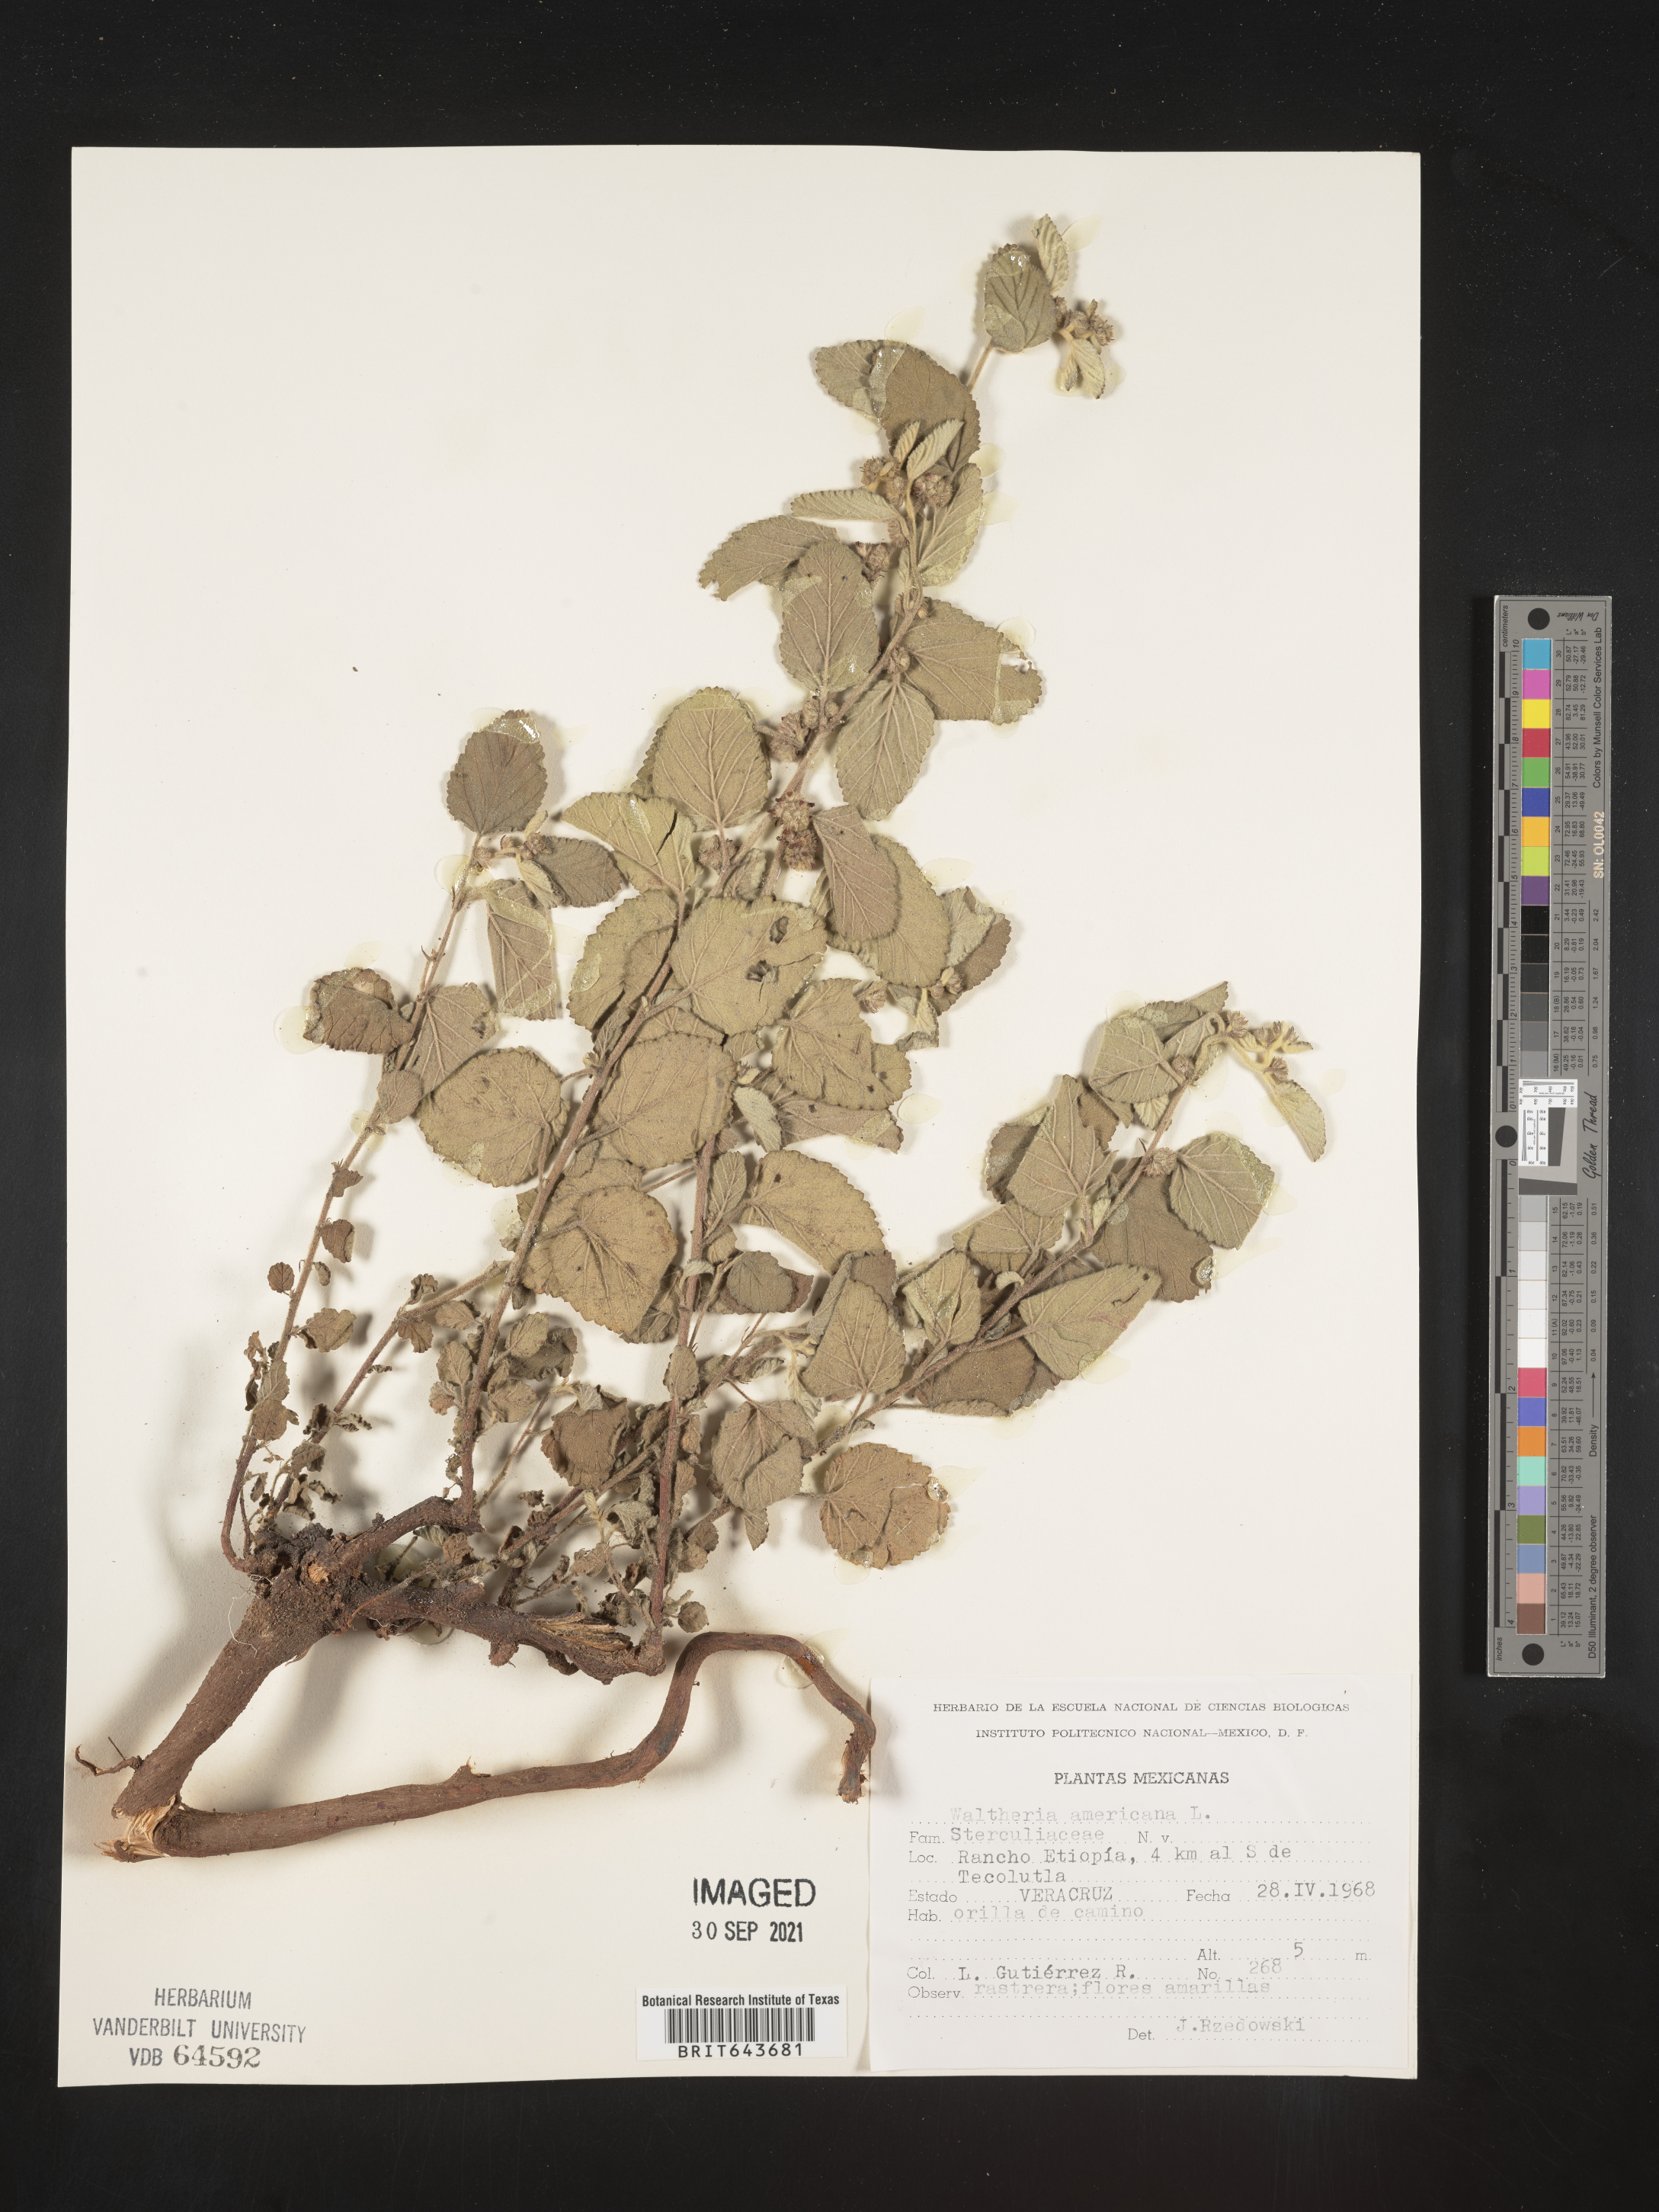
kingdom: Plantae
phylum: Tracheophyta
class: Magnoliopsida
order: Malvales
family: Malvaceae
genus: Waltheria
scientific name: Waltheria
